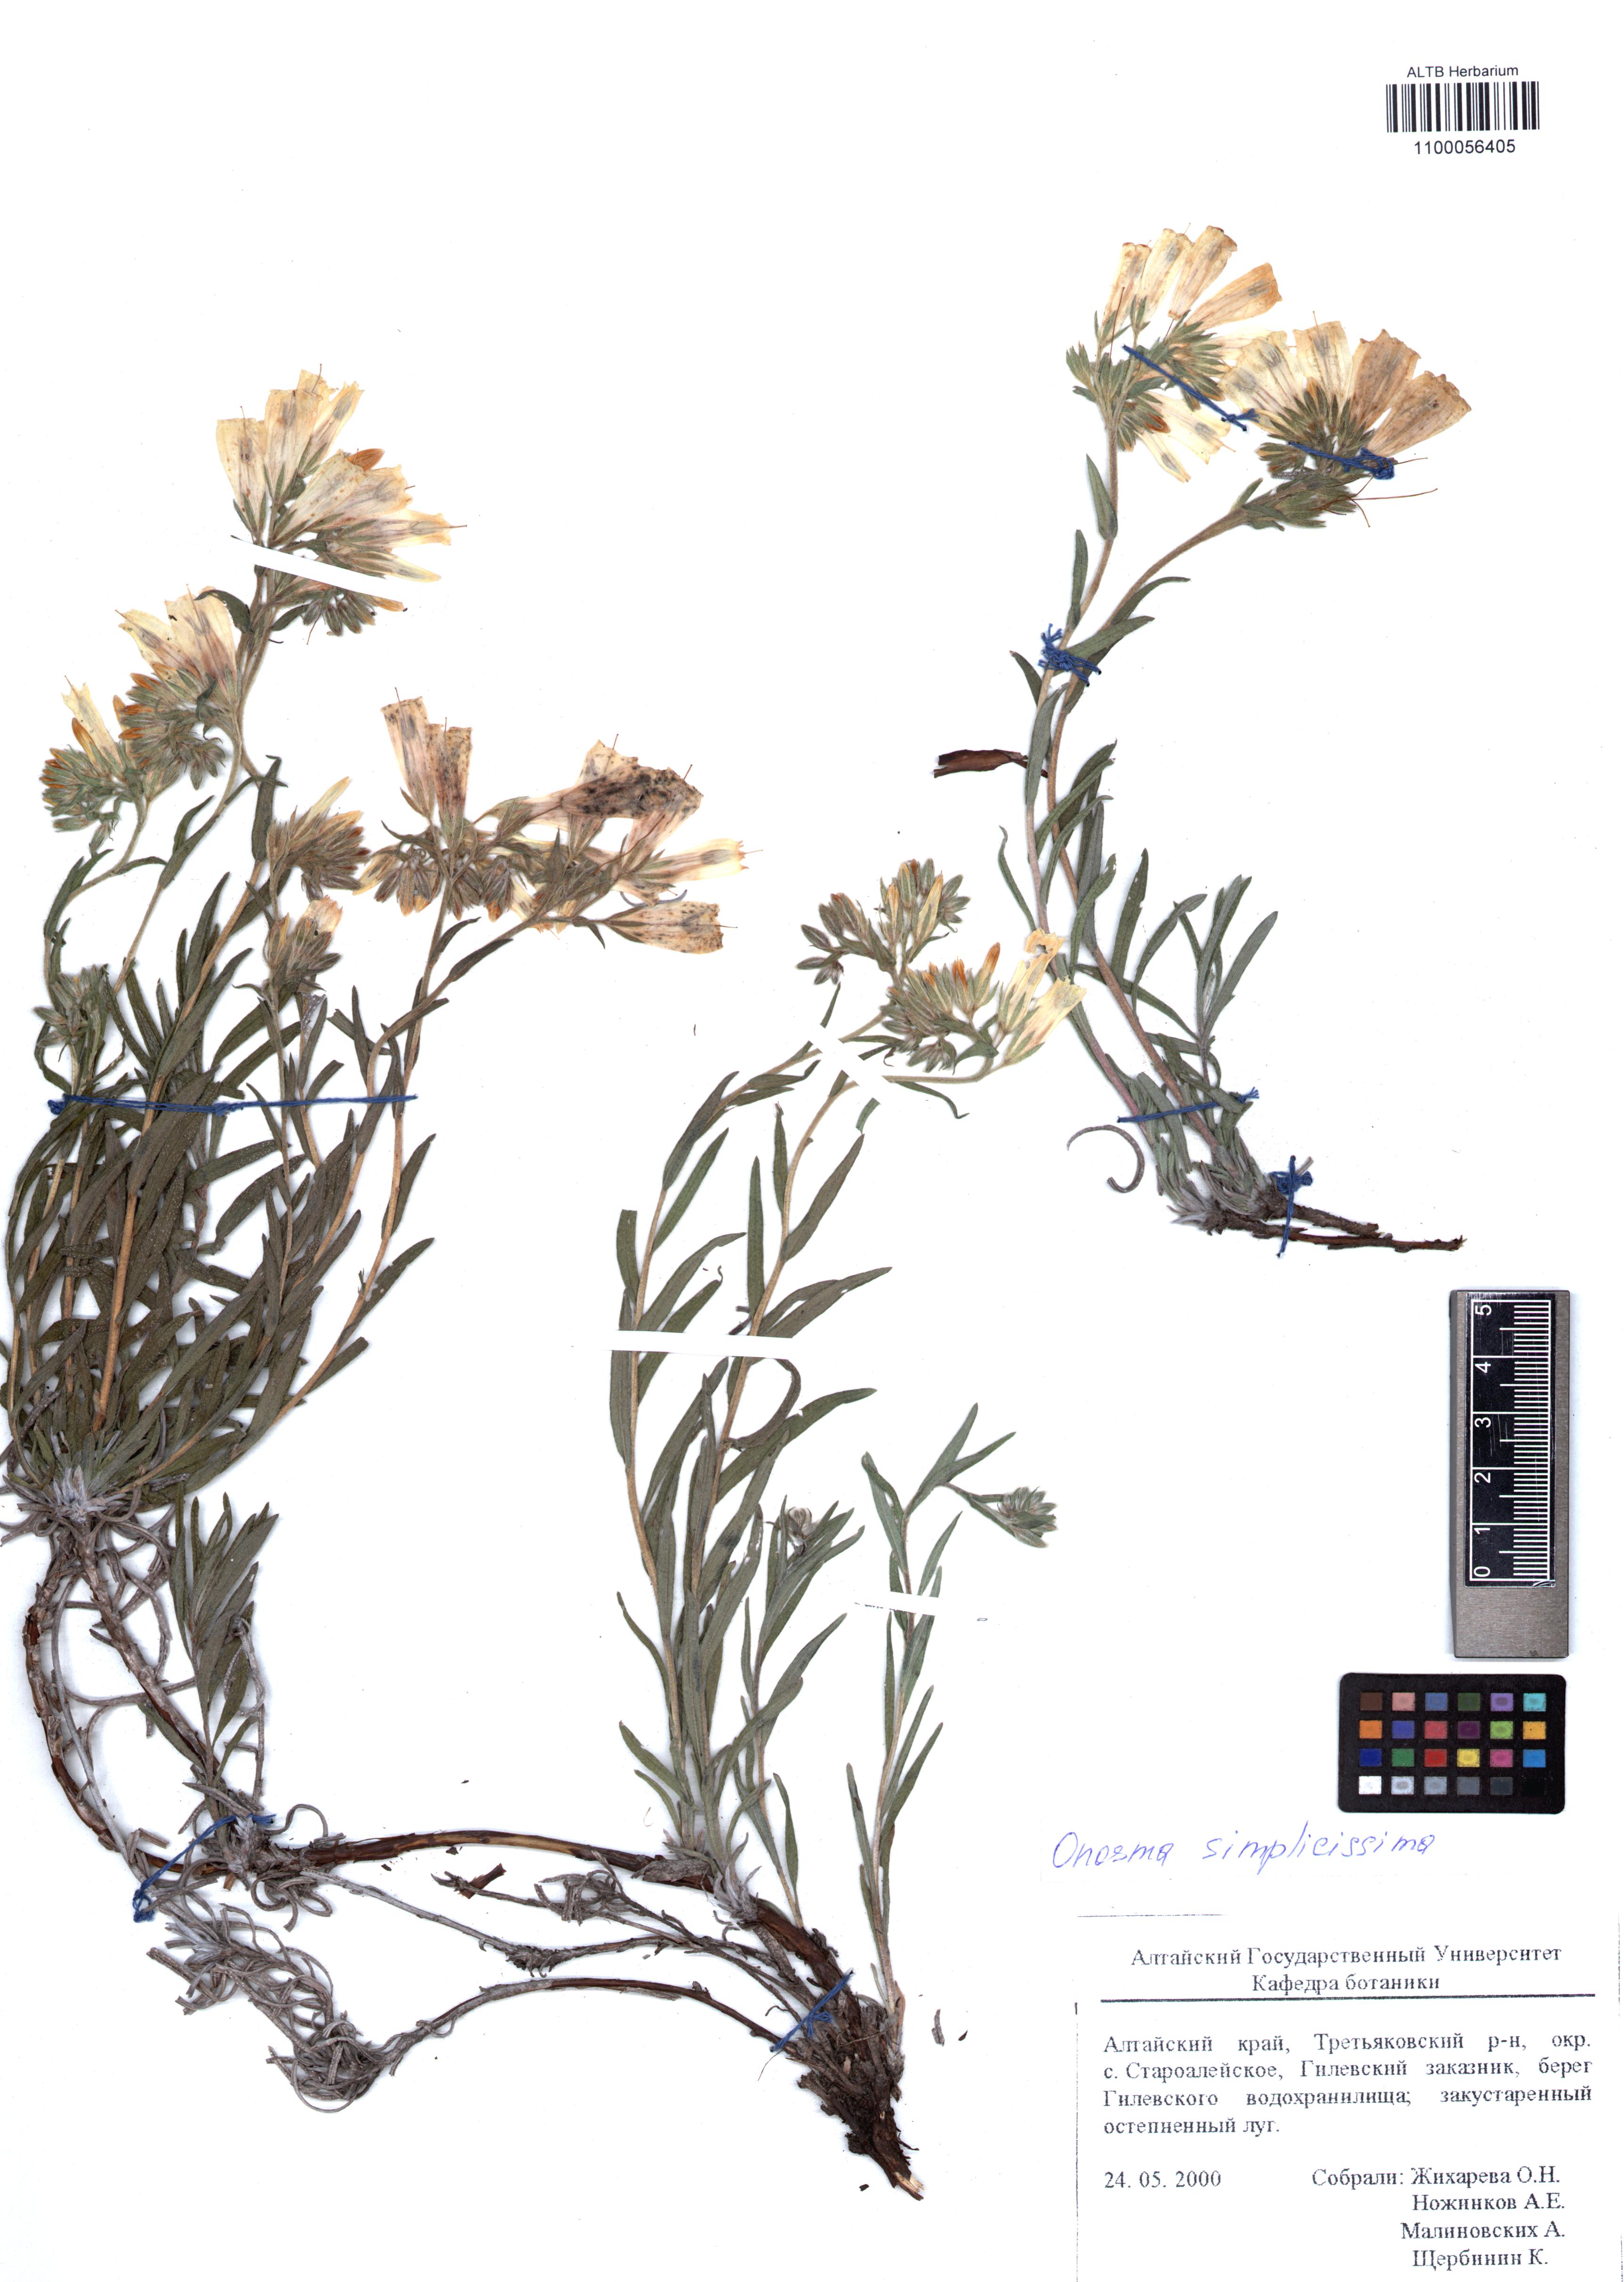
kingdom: Plantae
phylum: Tracheophyta
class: Magnoliopsida
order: Boraginales
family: Boraginaceae
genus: Onosma
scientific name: Onosma simplicissima
